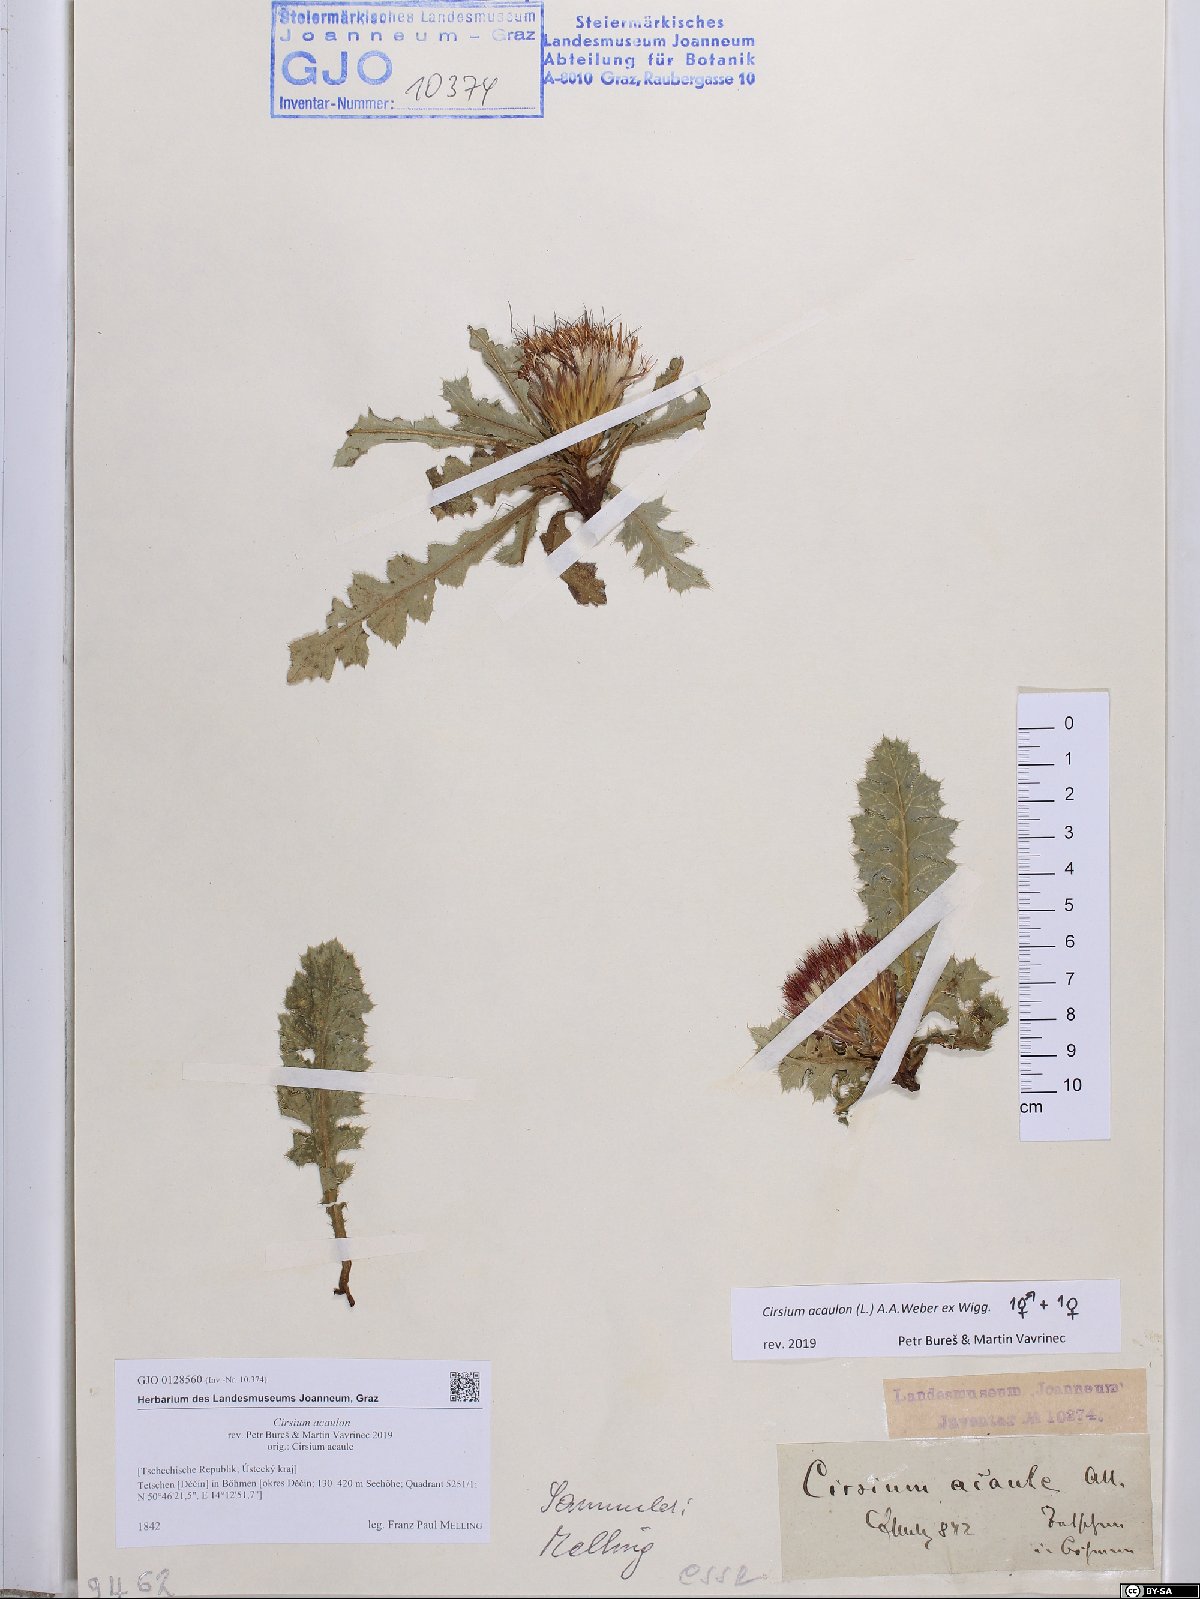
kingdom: Plantae
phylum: Tracheophyta
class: Magnoliopsida
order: Asterales
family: Asteraceae
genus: Cirsium
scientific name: Cirsium acaulon
